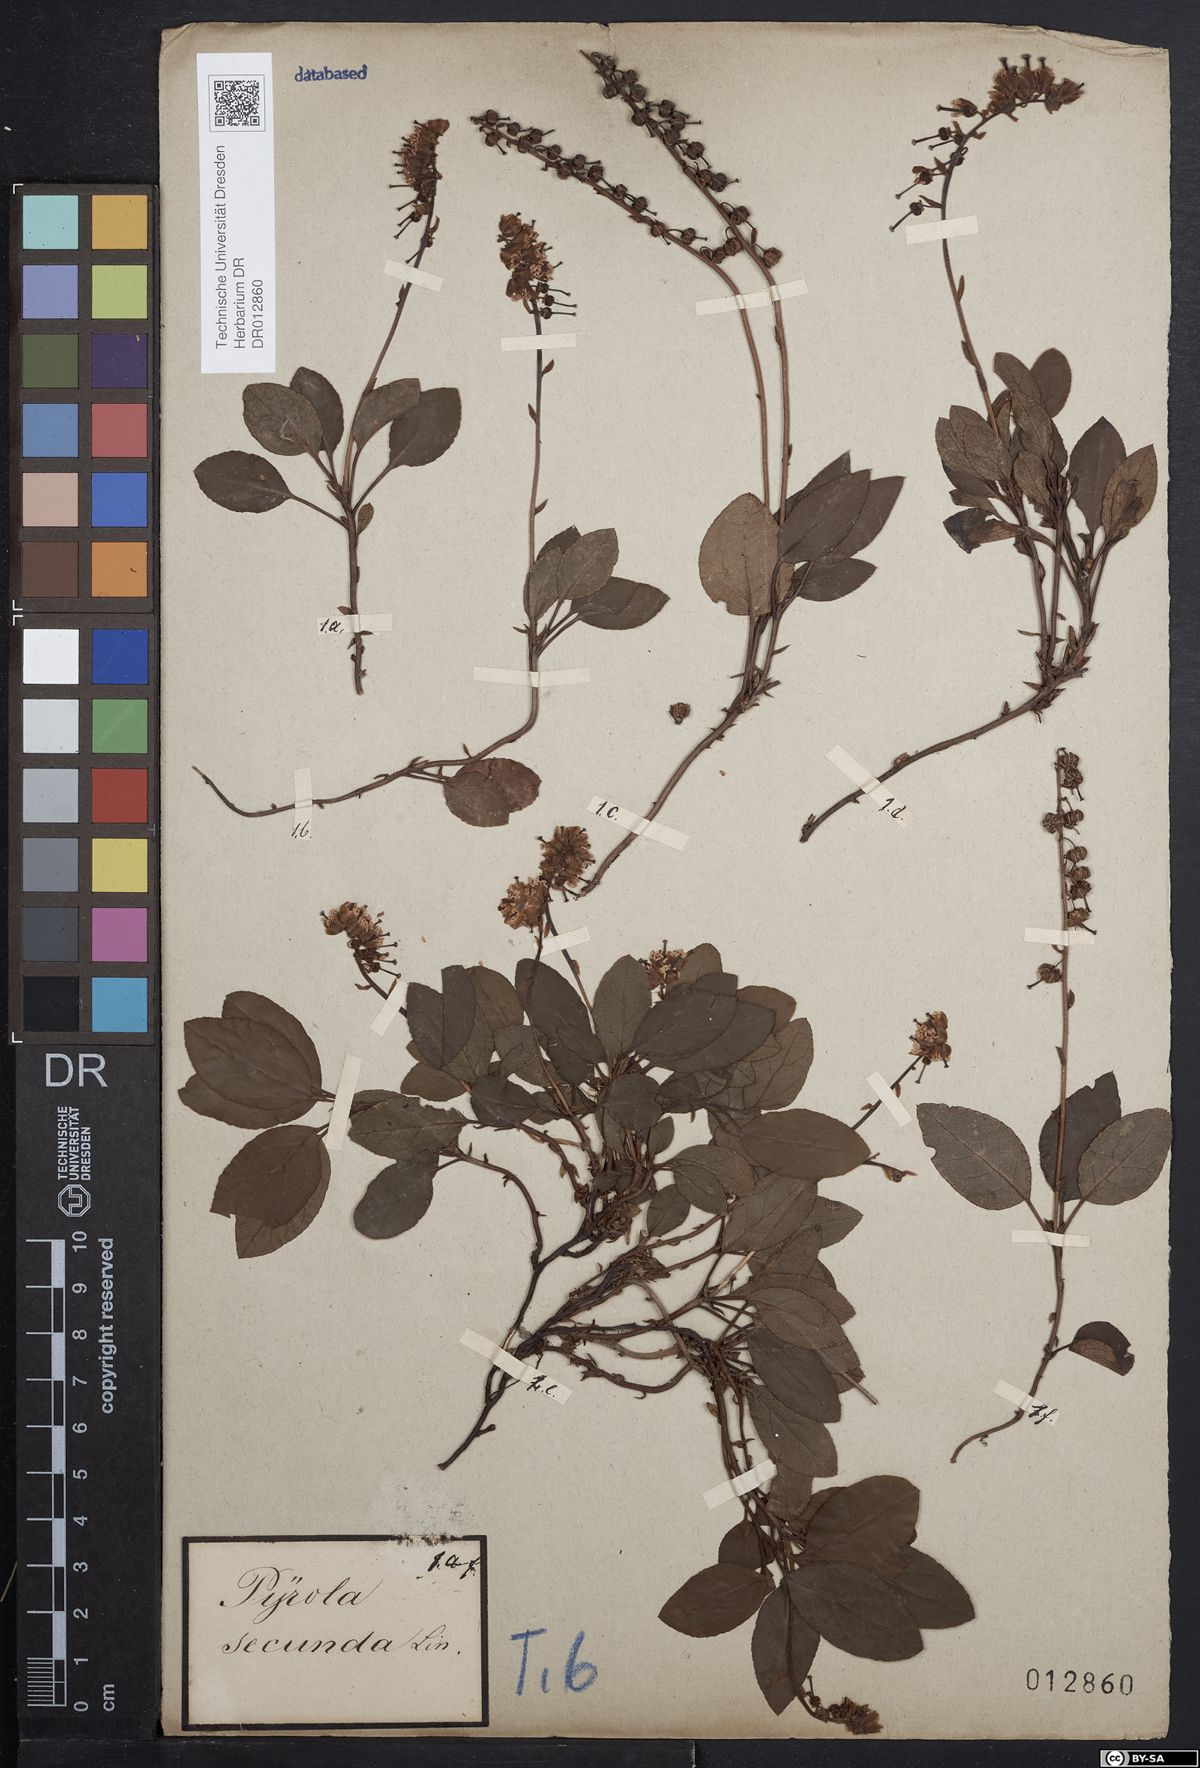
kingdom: Plantae
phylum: Tracheophyta
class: Magnoliopsida
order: Ericales
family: Ericaceae
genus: Orthilia
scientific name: Orthilia secunda
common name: One-sided orthilia
